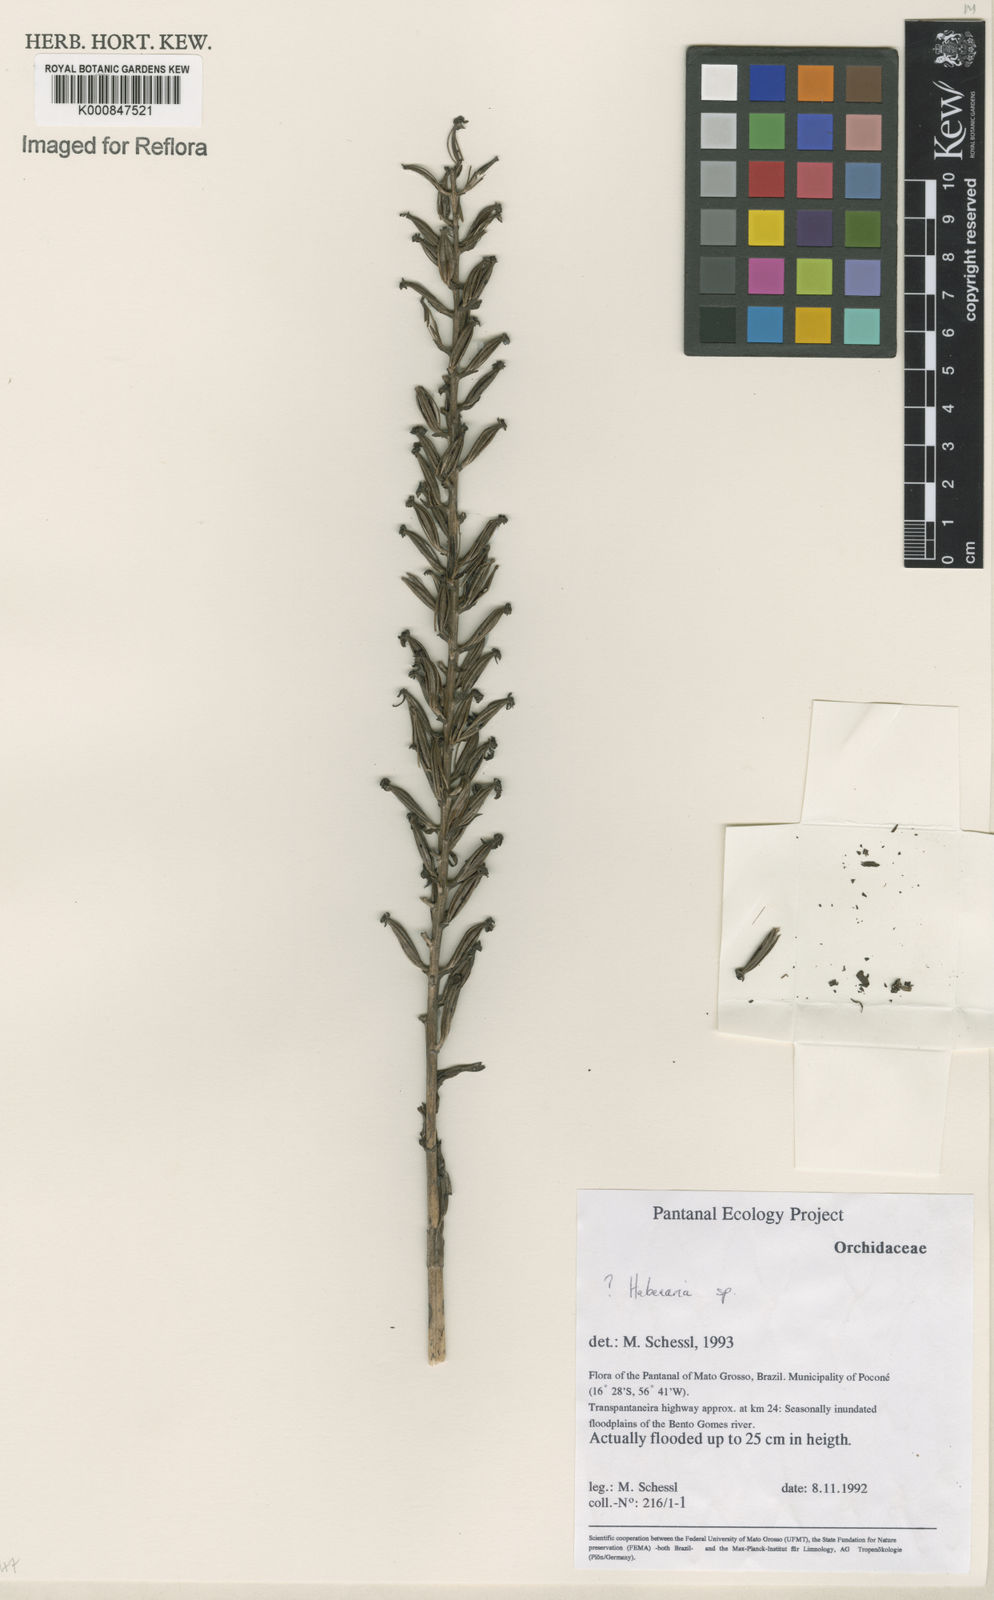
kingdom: Plantae
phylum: Tracheophyta
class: Liliopsida
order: Asparagales
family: Orchidaceae
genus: Habenaria
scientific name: Habenaria
